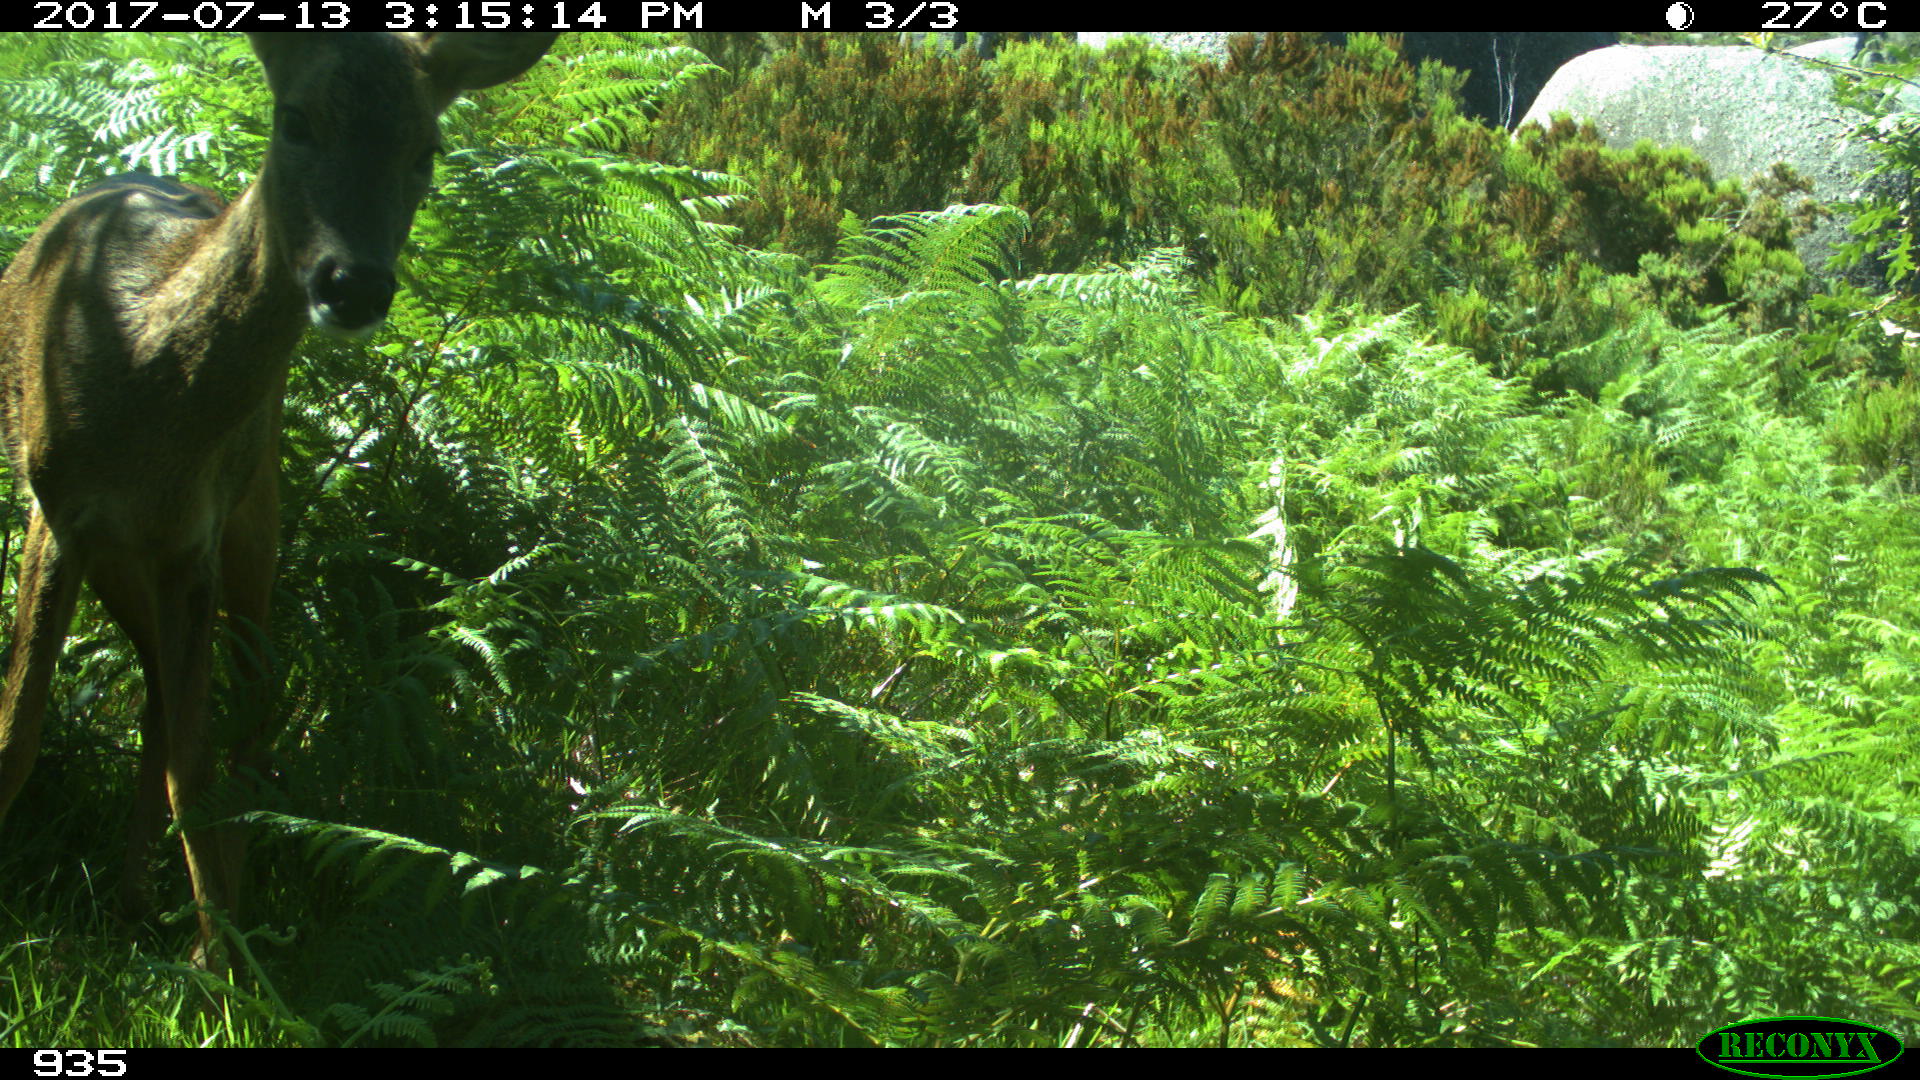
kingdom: Animalia
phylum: Chordata
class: Mammalia
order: Artiodactyla
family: Cervidae
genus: Capreolus
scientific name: Capreolus capreolus
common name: Western roe deer
